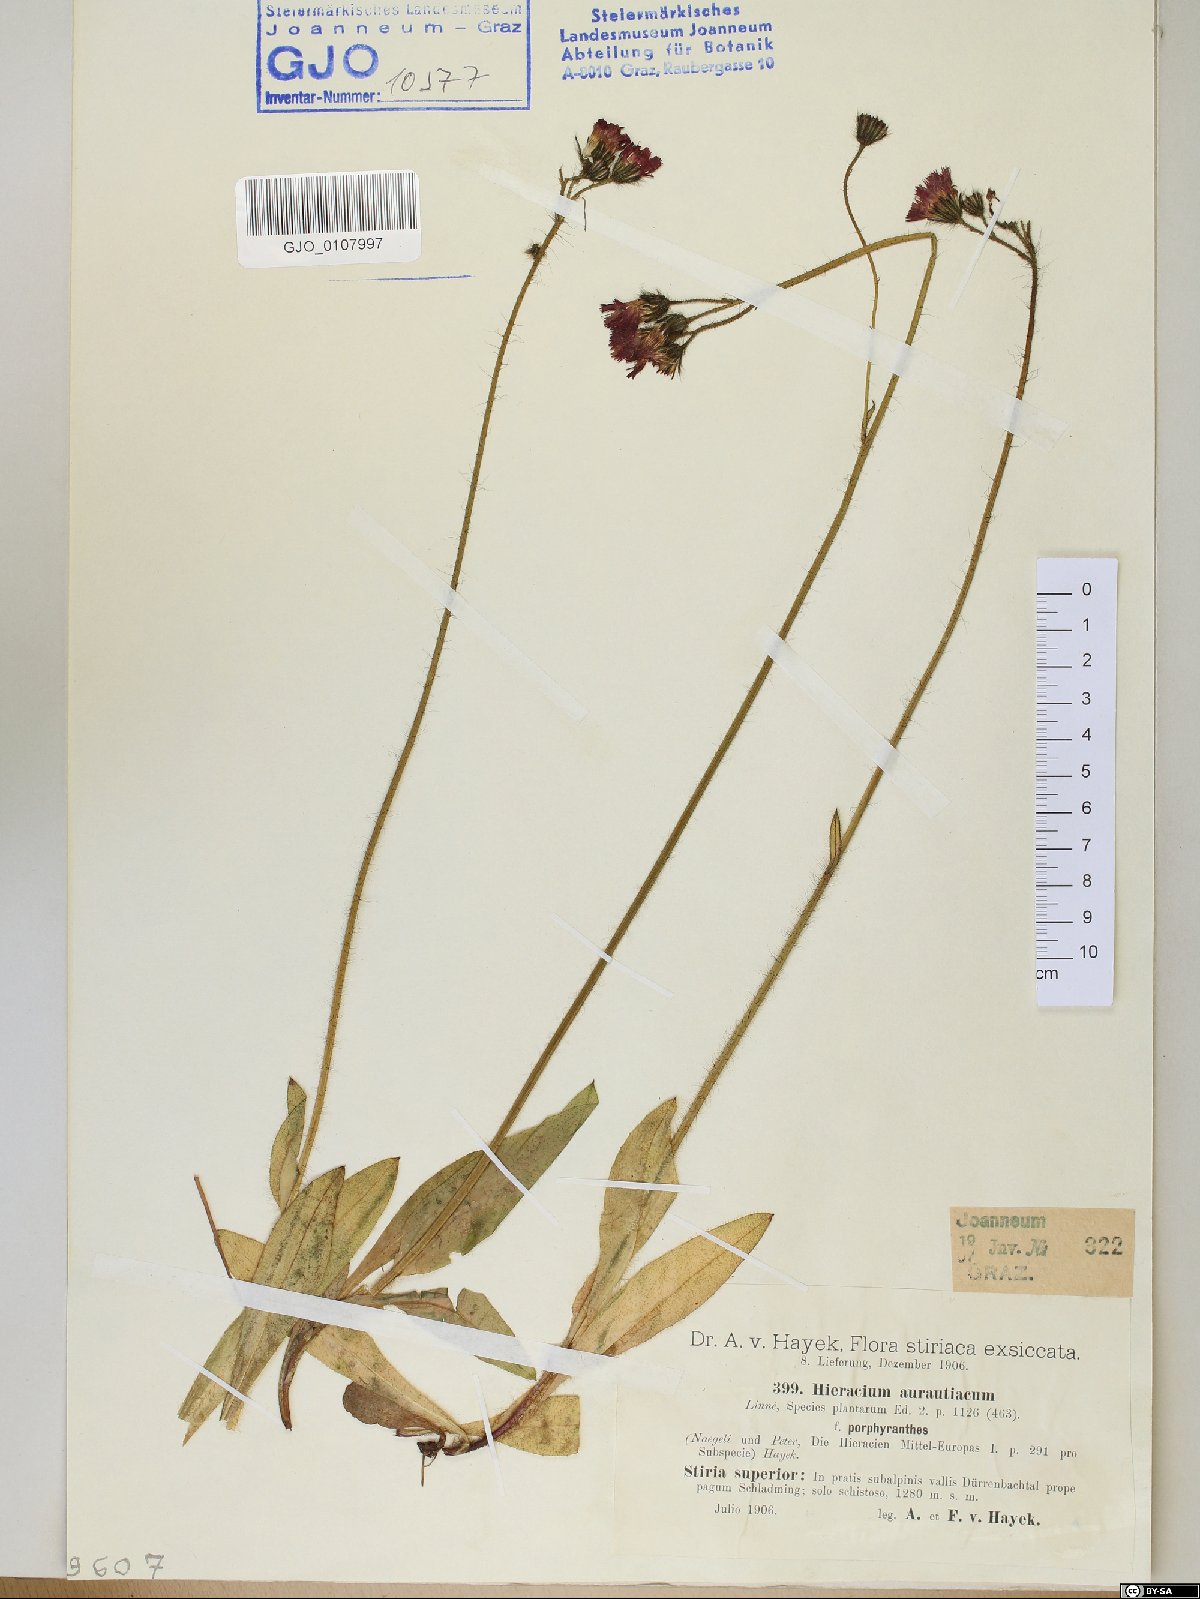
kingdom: Plantae
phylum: Tracheophyta
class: Magnoliopsida
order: Asterales
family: Asteraceae
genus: Pilosella
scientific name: Pilosella aurantiaca
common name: Fox-and-cubs
